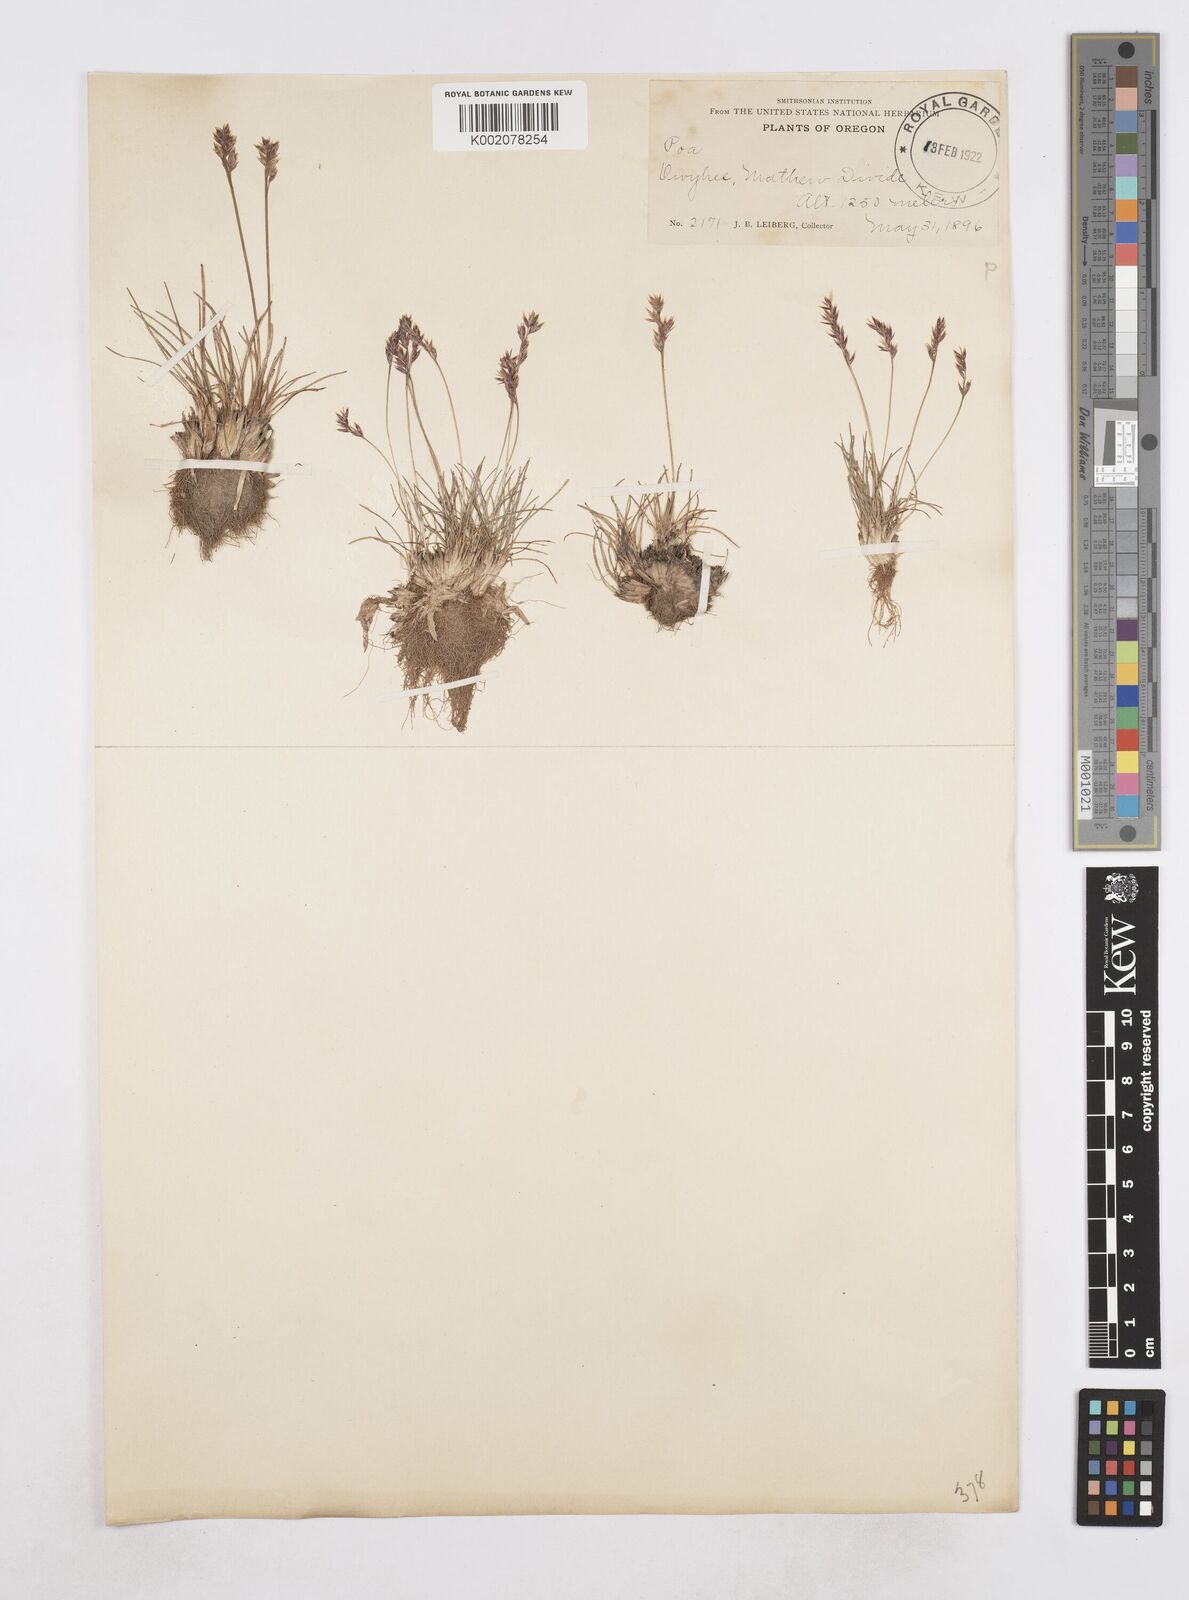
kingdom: Plantae
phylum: Tracheophyta
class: Liliopsida
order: Poales
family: Poaceae
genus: Poa
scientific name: Poa
